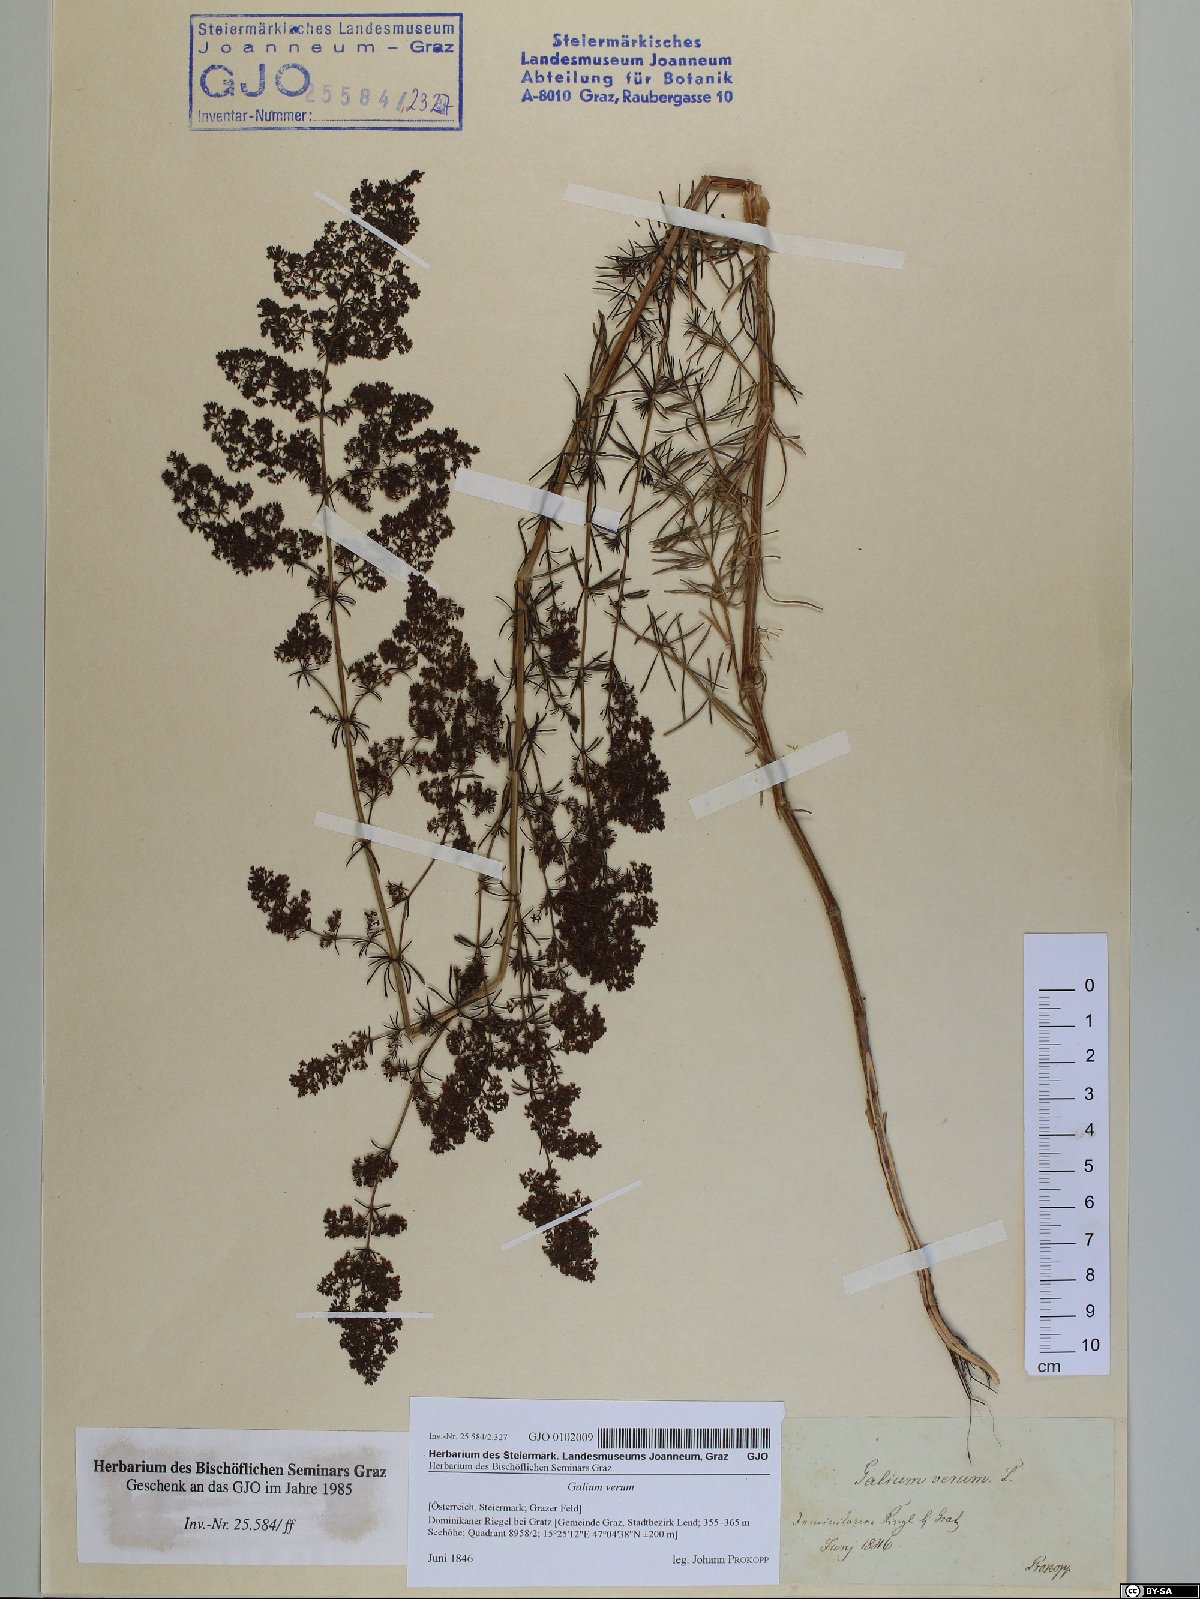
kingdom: Plantae
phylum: Tracheophyta
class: Magnoliopsida
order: Gentianales
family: Rubiaceae
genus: Galium
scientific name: Galium verum
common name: Lady's bedstraw
